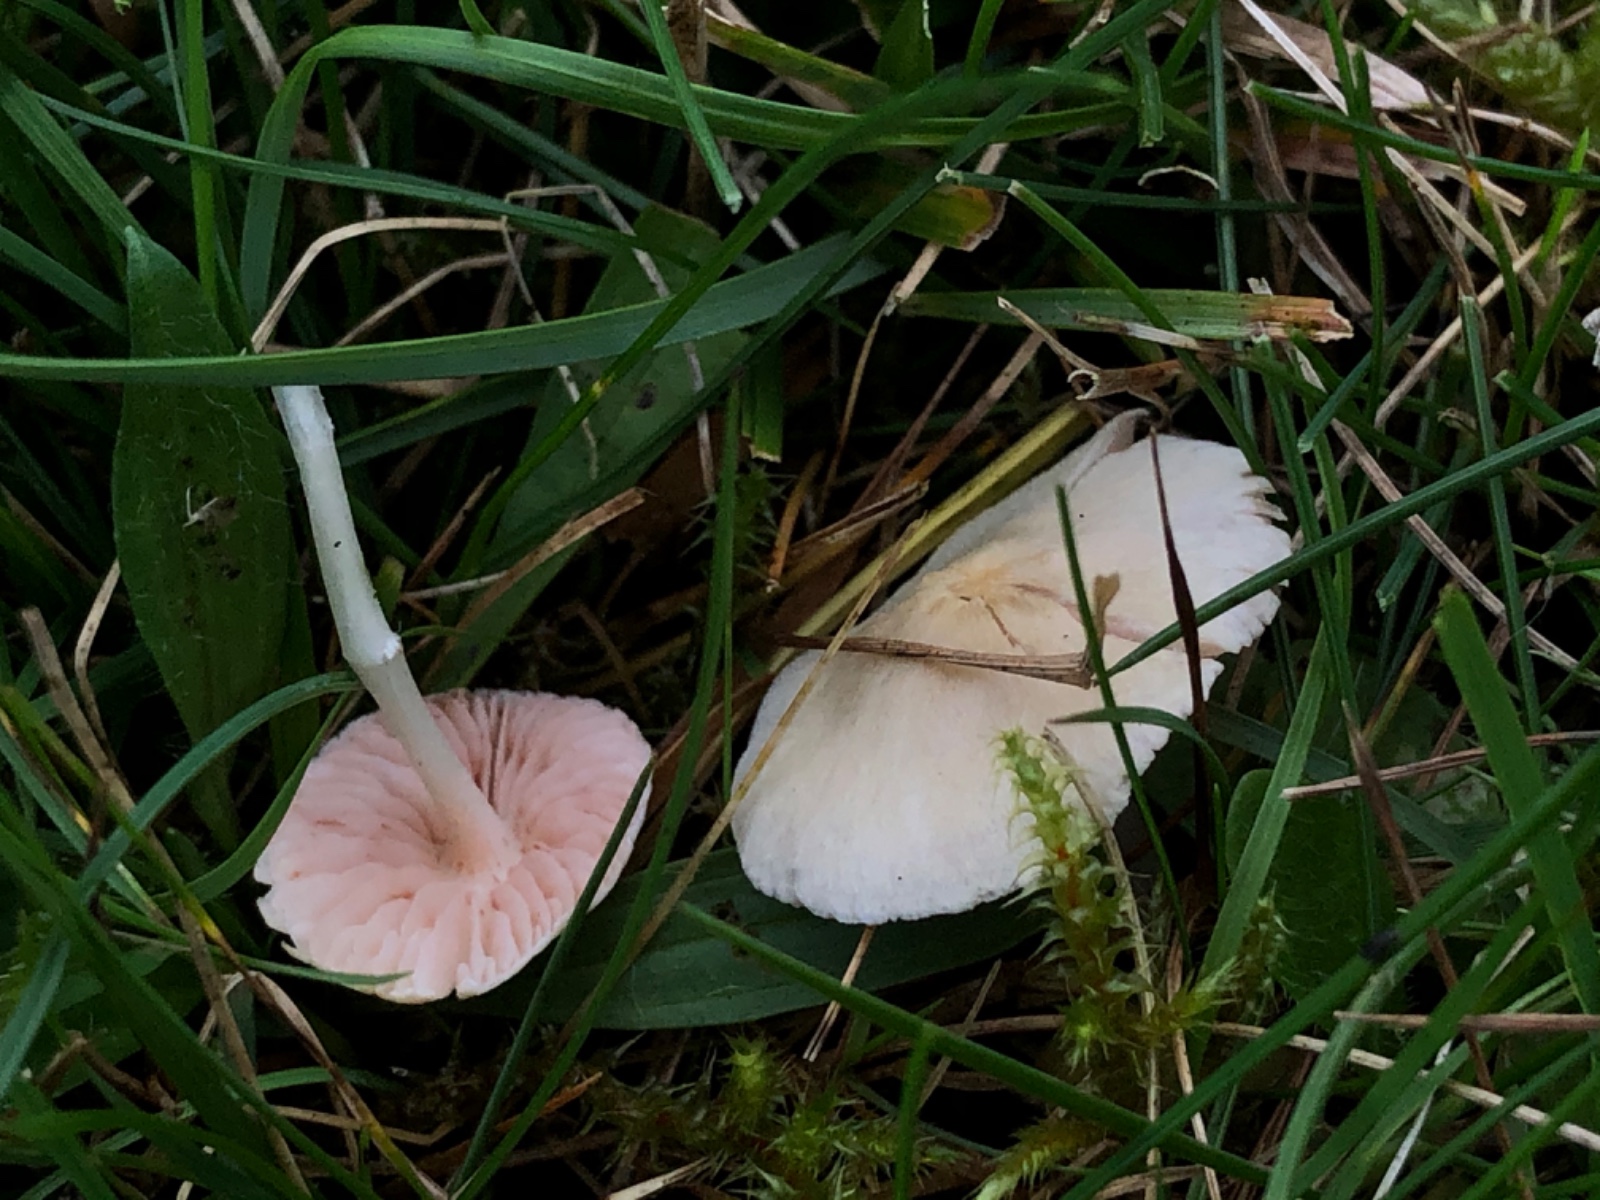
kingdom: Fungi
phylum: Basidiomycota
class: Agaricomycetes
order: Agaricales
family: Entolomataceae
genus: Entoloma
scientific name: Entoloma sericellum
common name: silkehvid rødblad
